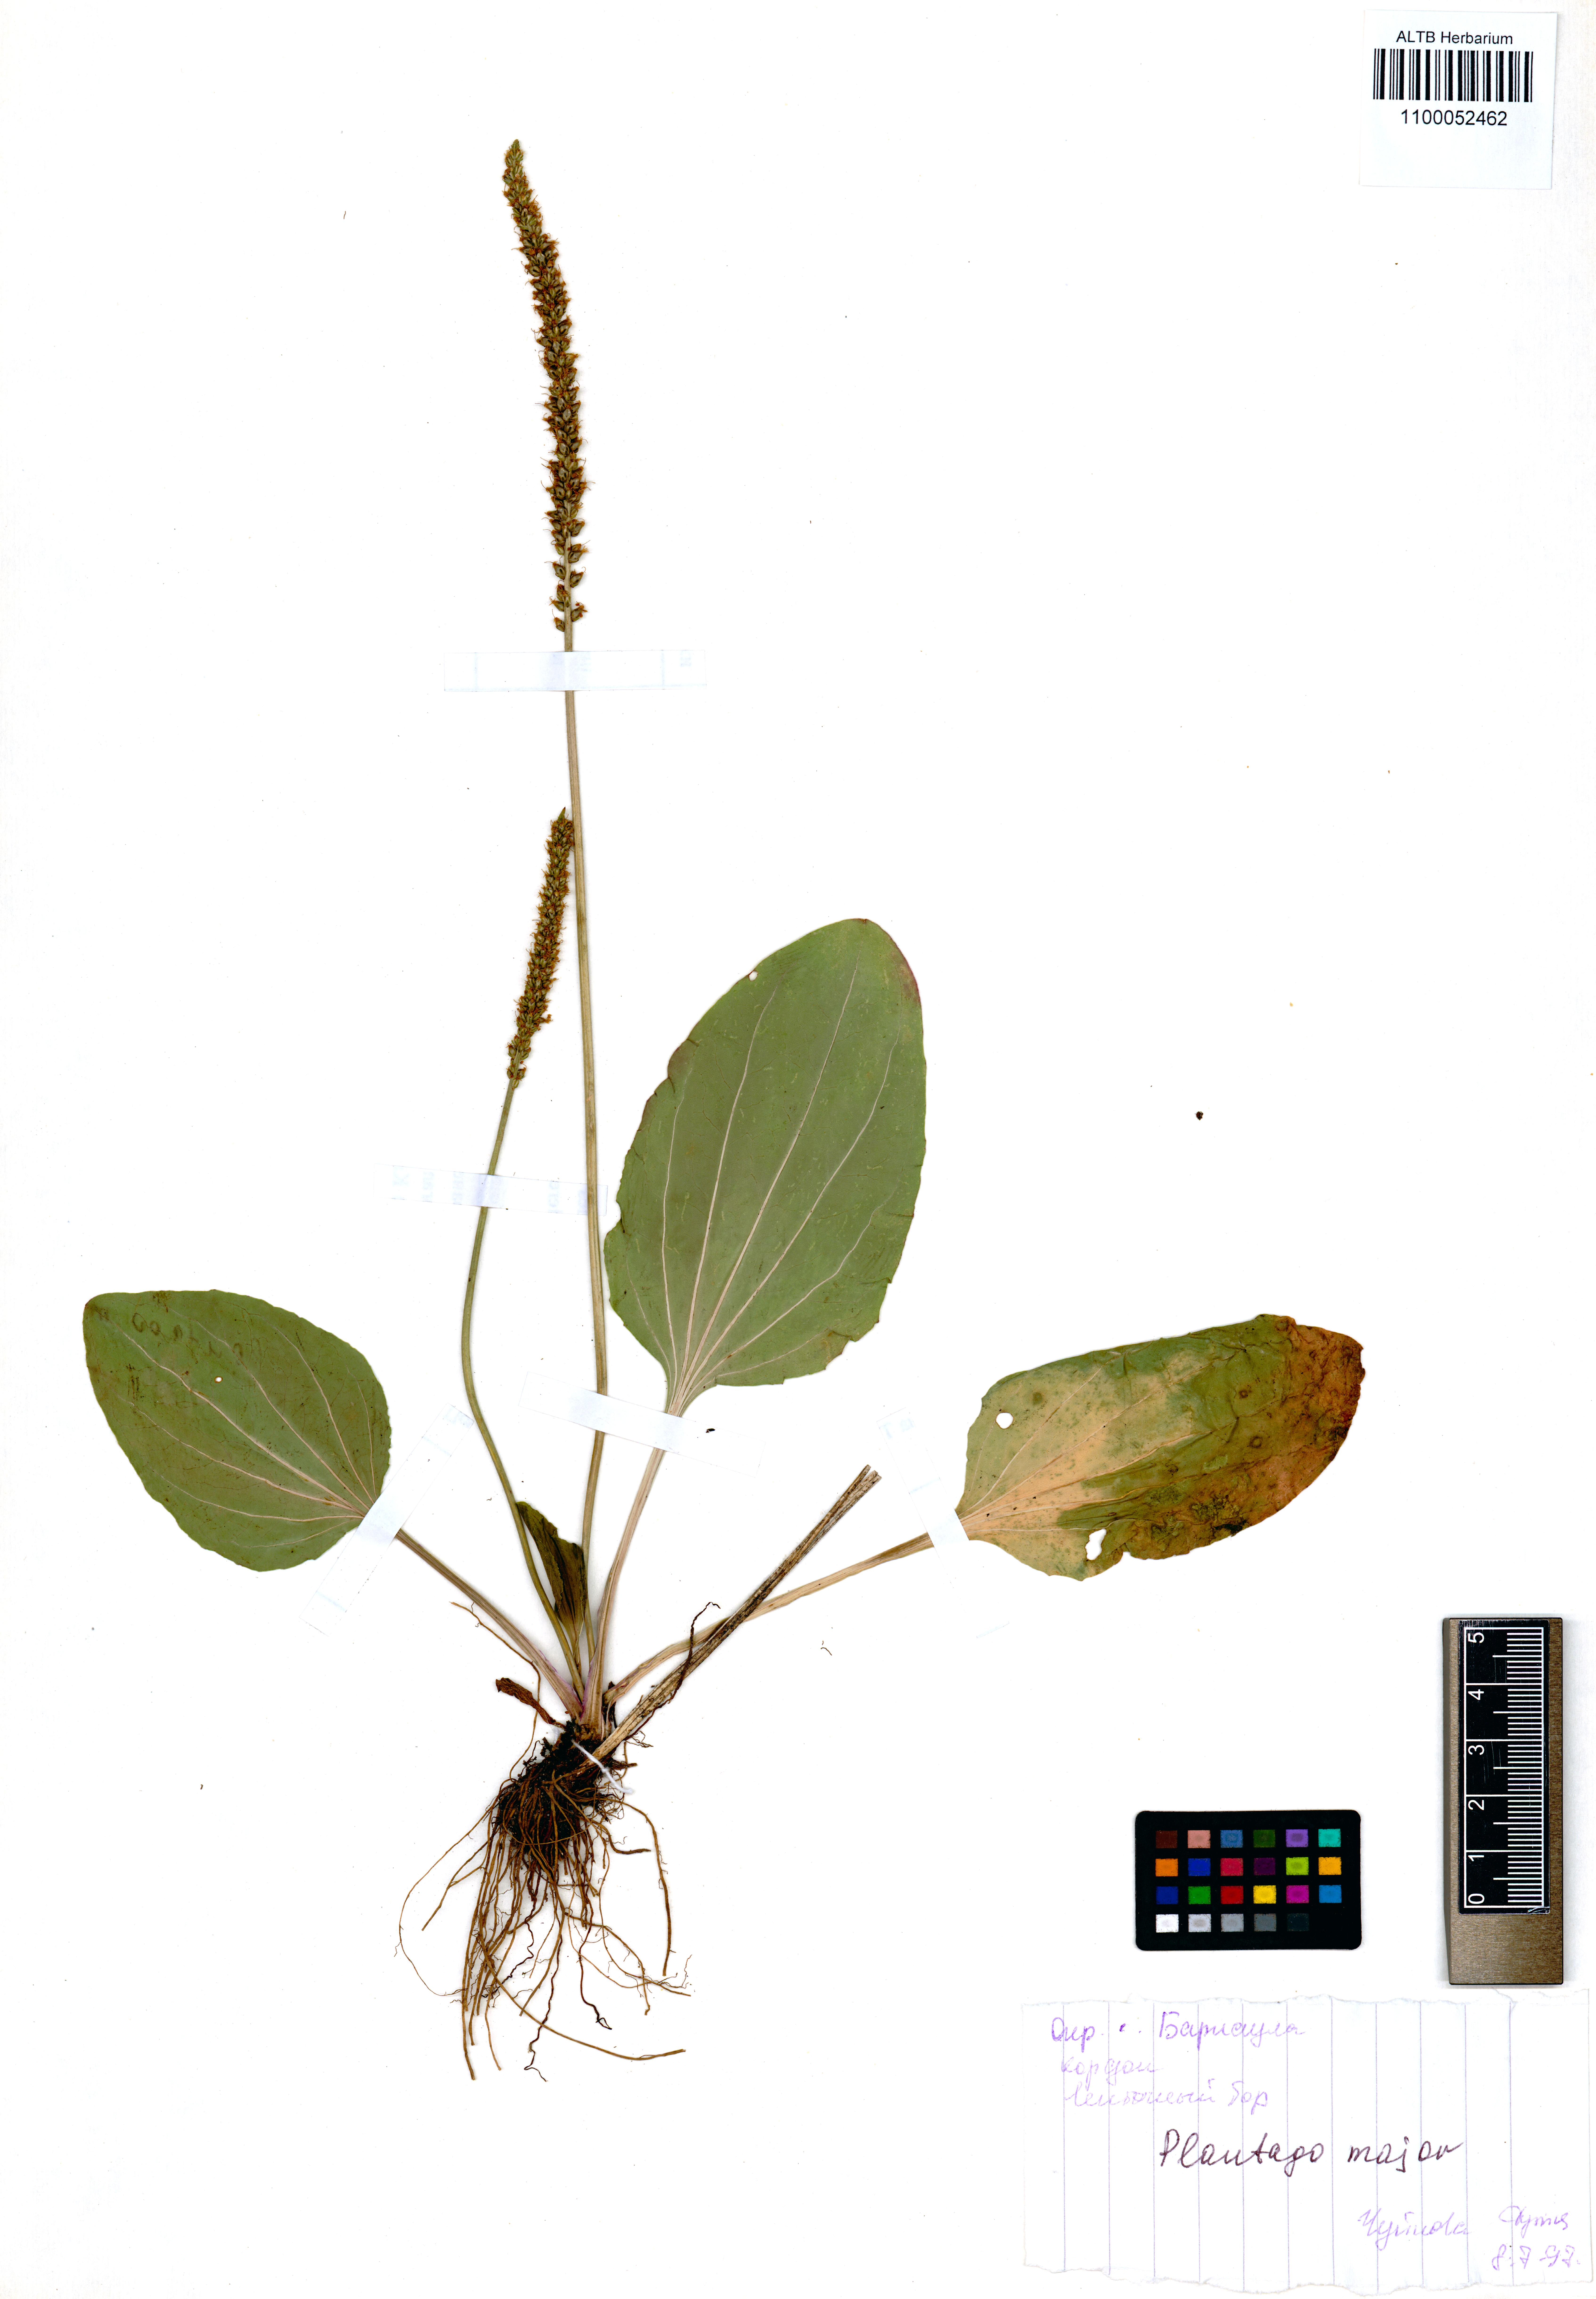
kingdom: Plantae
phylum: Tracheophyta
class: Magnoliopsida
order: Lamiales
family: Plantaginaceae
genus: Plantago
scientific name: Plantago major
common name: Common plantain
